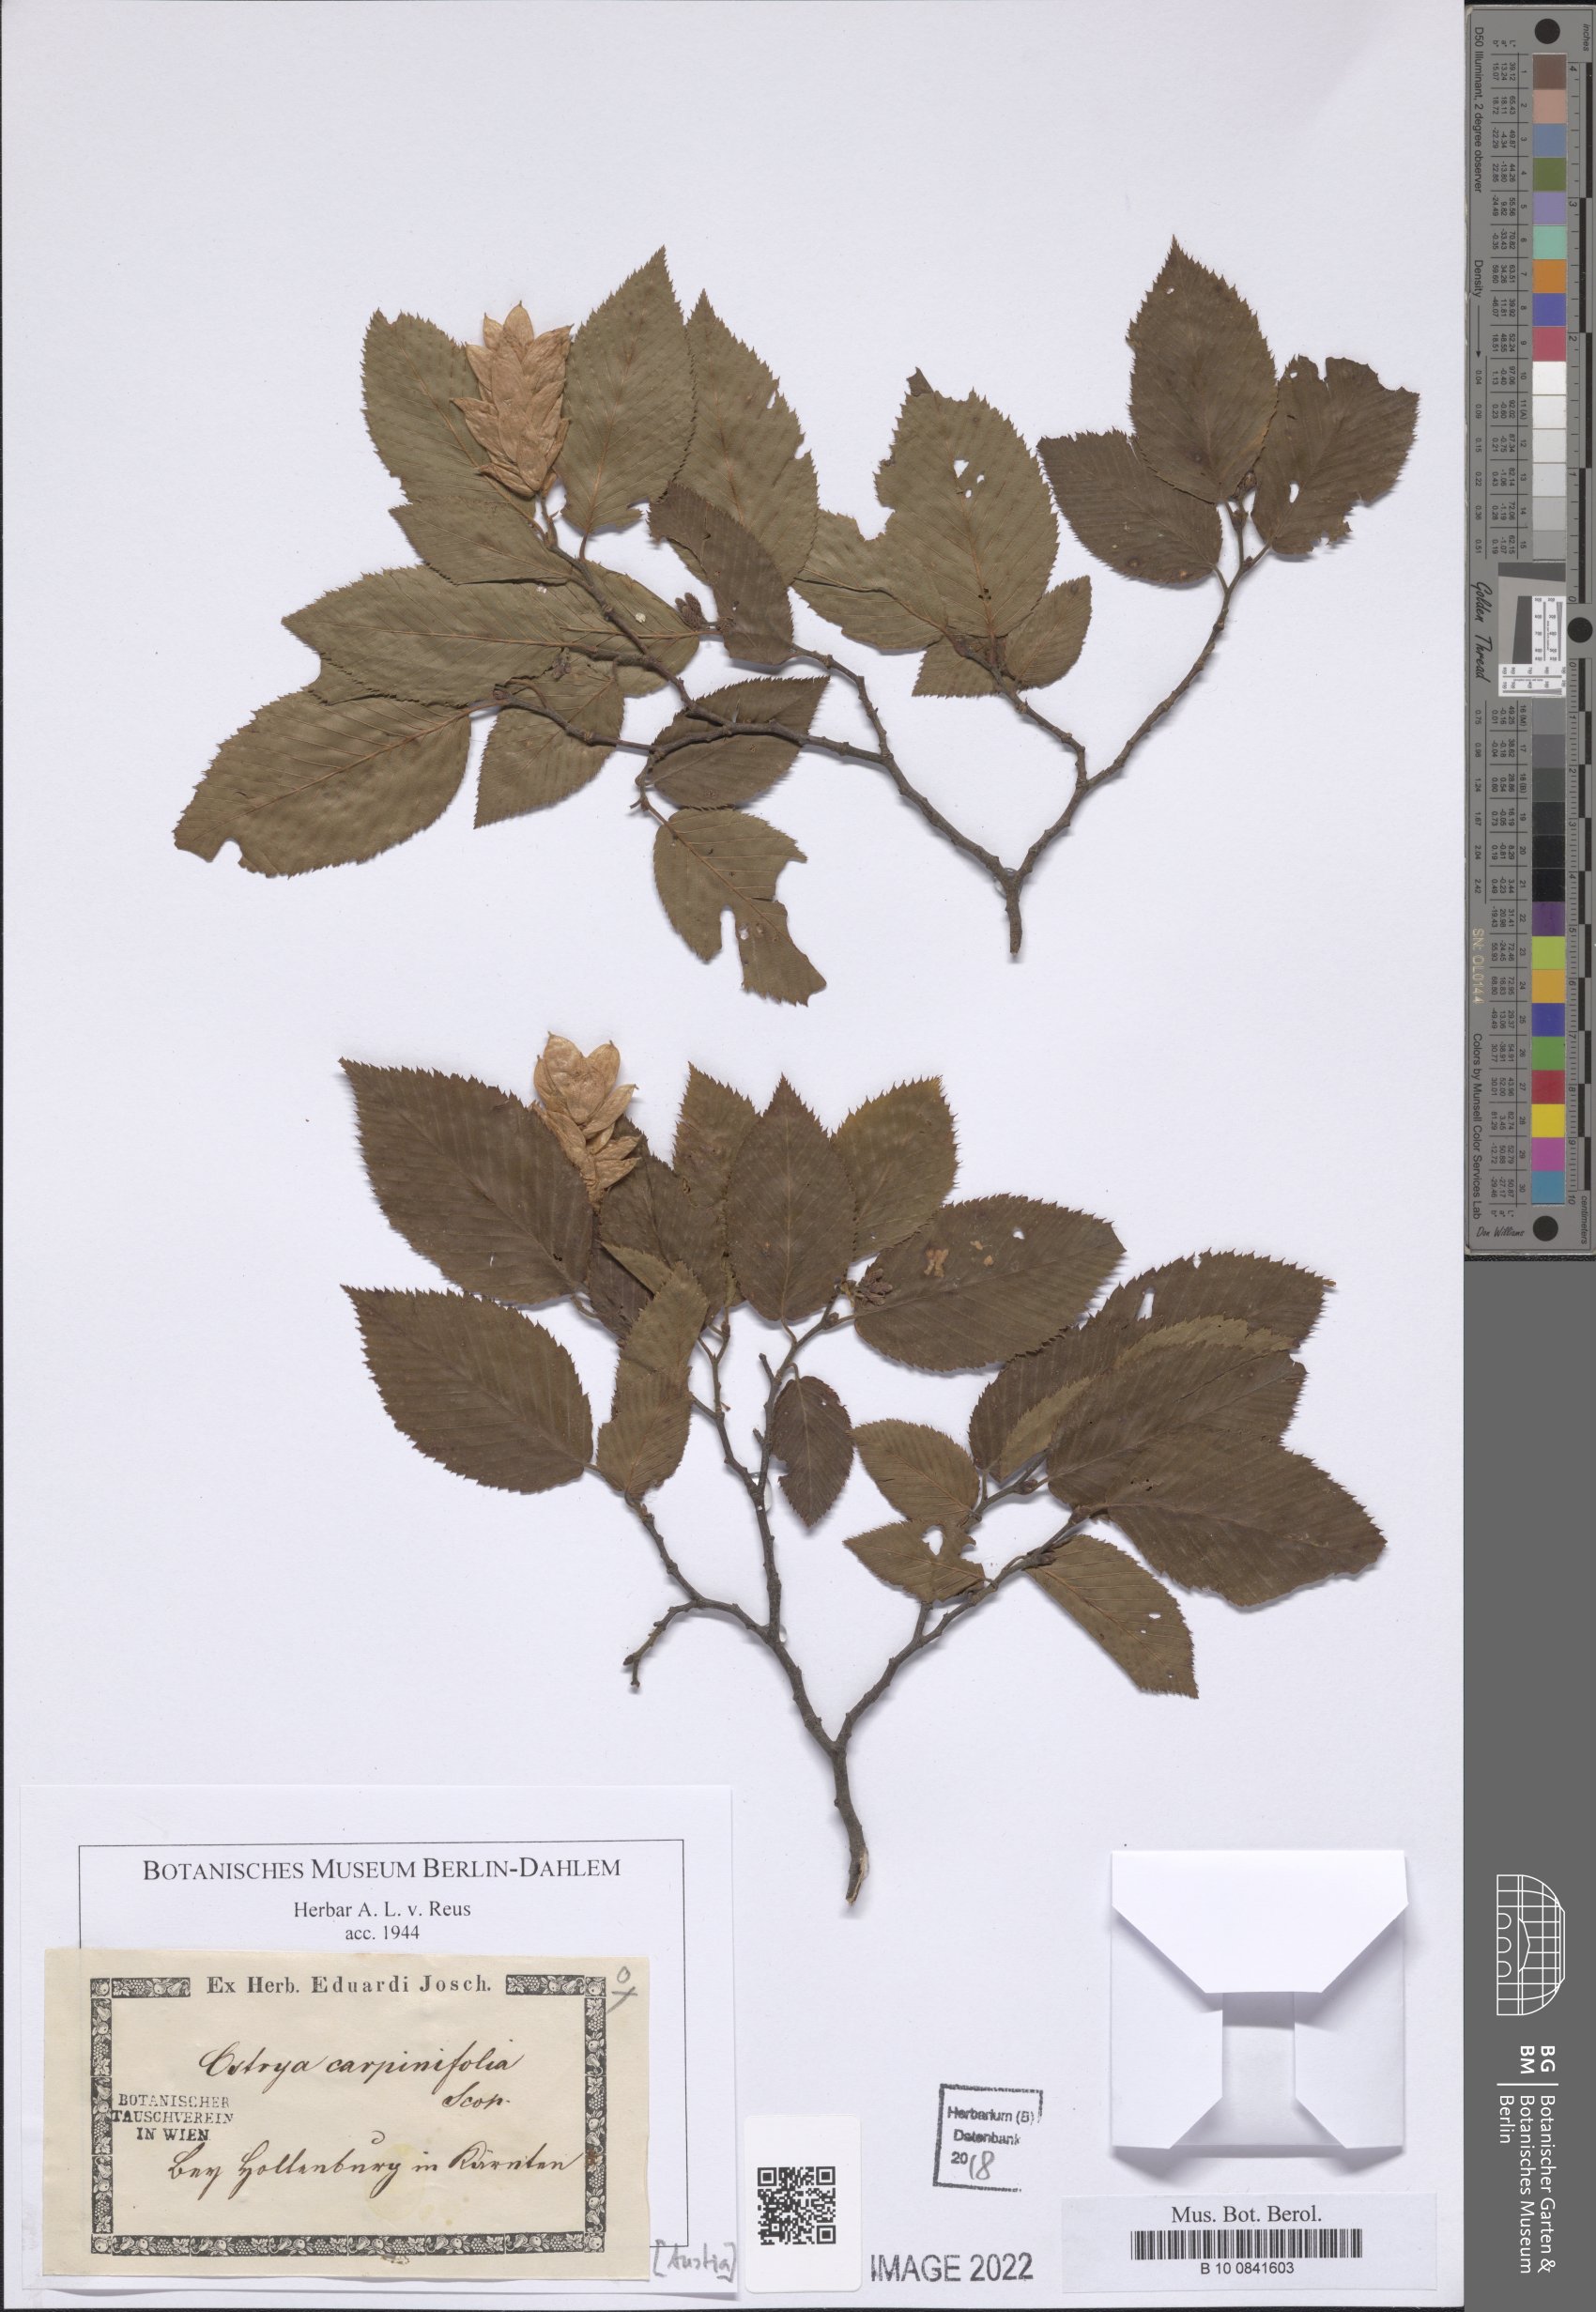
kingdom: Plantae
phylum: Tracheophyta
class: Magnoliopsida
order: Fagales
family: Betulaceae
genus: Ostrya
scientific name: Ostrya carpinifolia
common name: European hop-hornbeam
